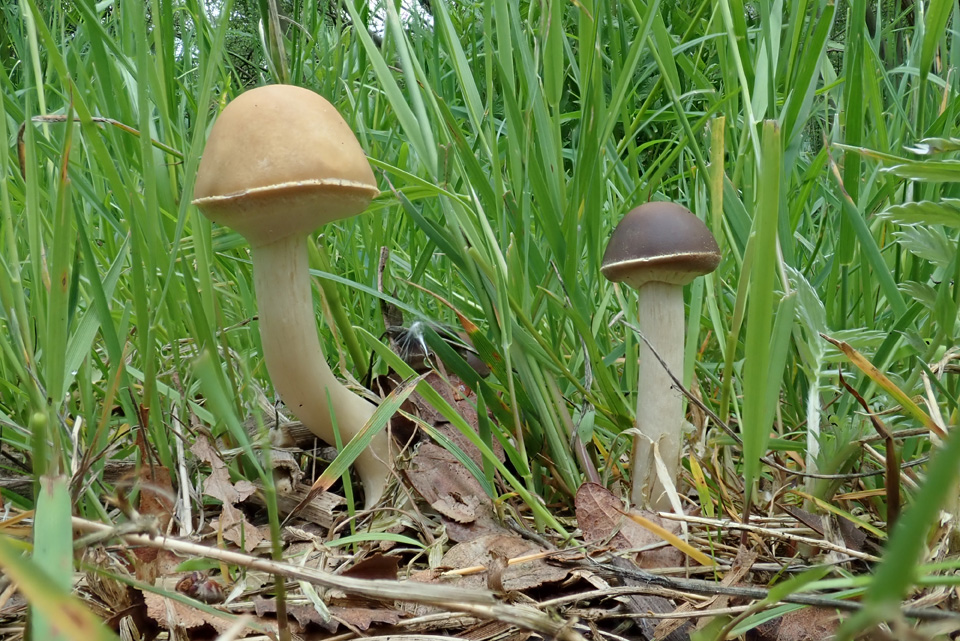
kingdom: Fungi
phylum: Basidiomycota
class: Agaricomycetes
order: Agaricales
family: Strophariaceae
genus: Agrocybe
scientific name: Agrocybe praecox
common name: tidlig agerhat
